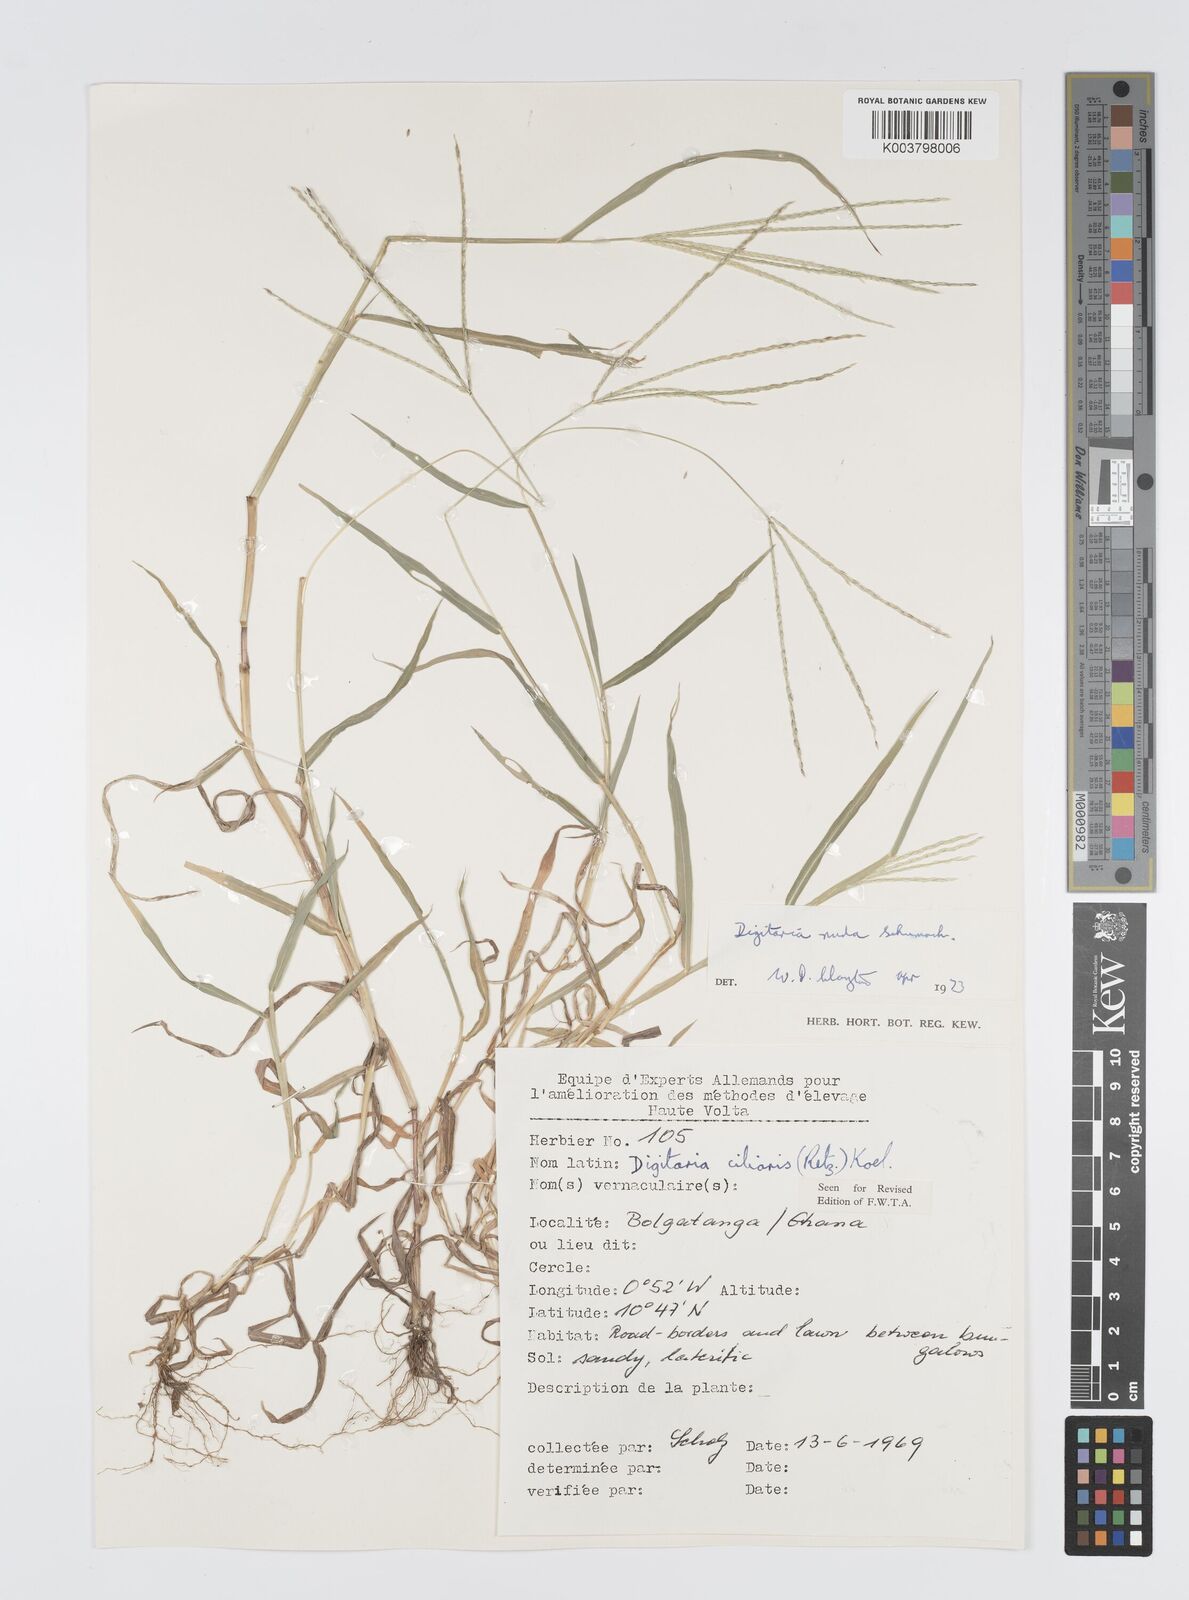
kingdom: Plantae
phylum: Tracheophyta
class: Liliopsida
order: Poales
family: Poaceae
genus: Digitaria
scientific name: Digitaria nuda
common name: Naked crabgrass
